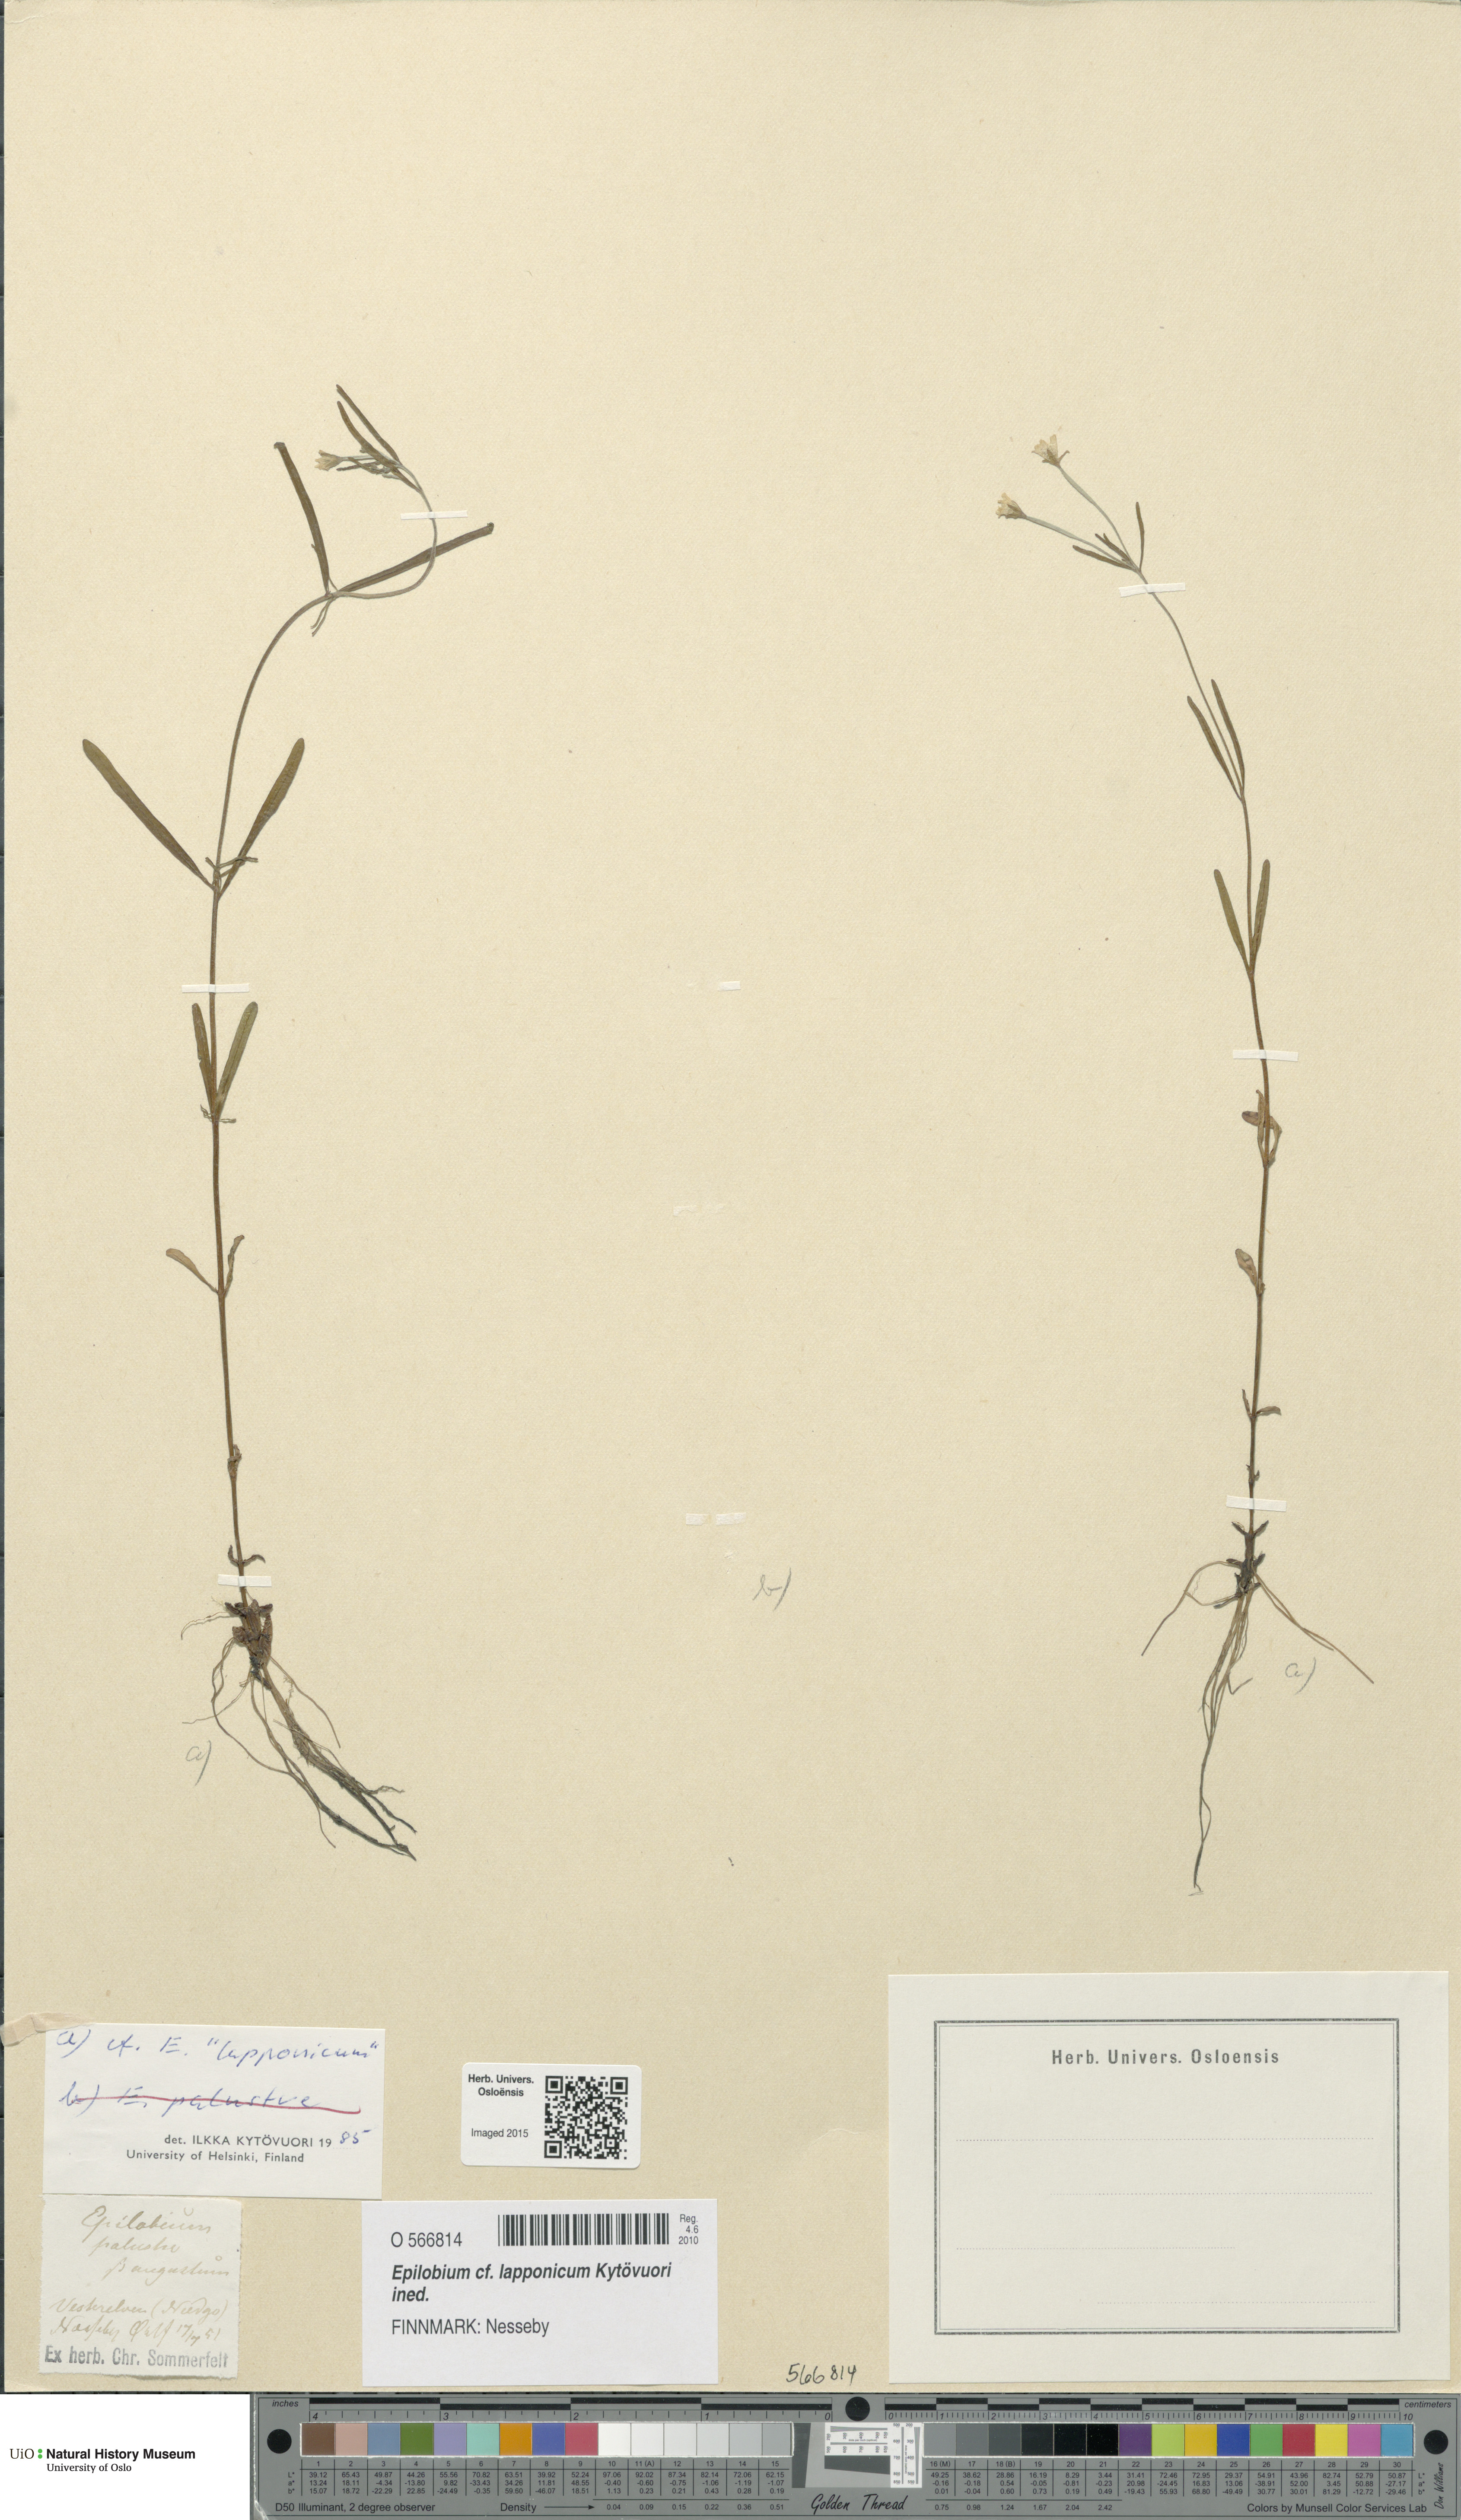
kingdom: Plantae
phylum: Tracheophyta
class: Magnoliopsida
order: Myrtales
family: Onagraceae
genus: Epilobium
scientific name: Epilobium palustre
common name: Marsh willowherb
